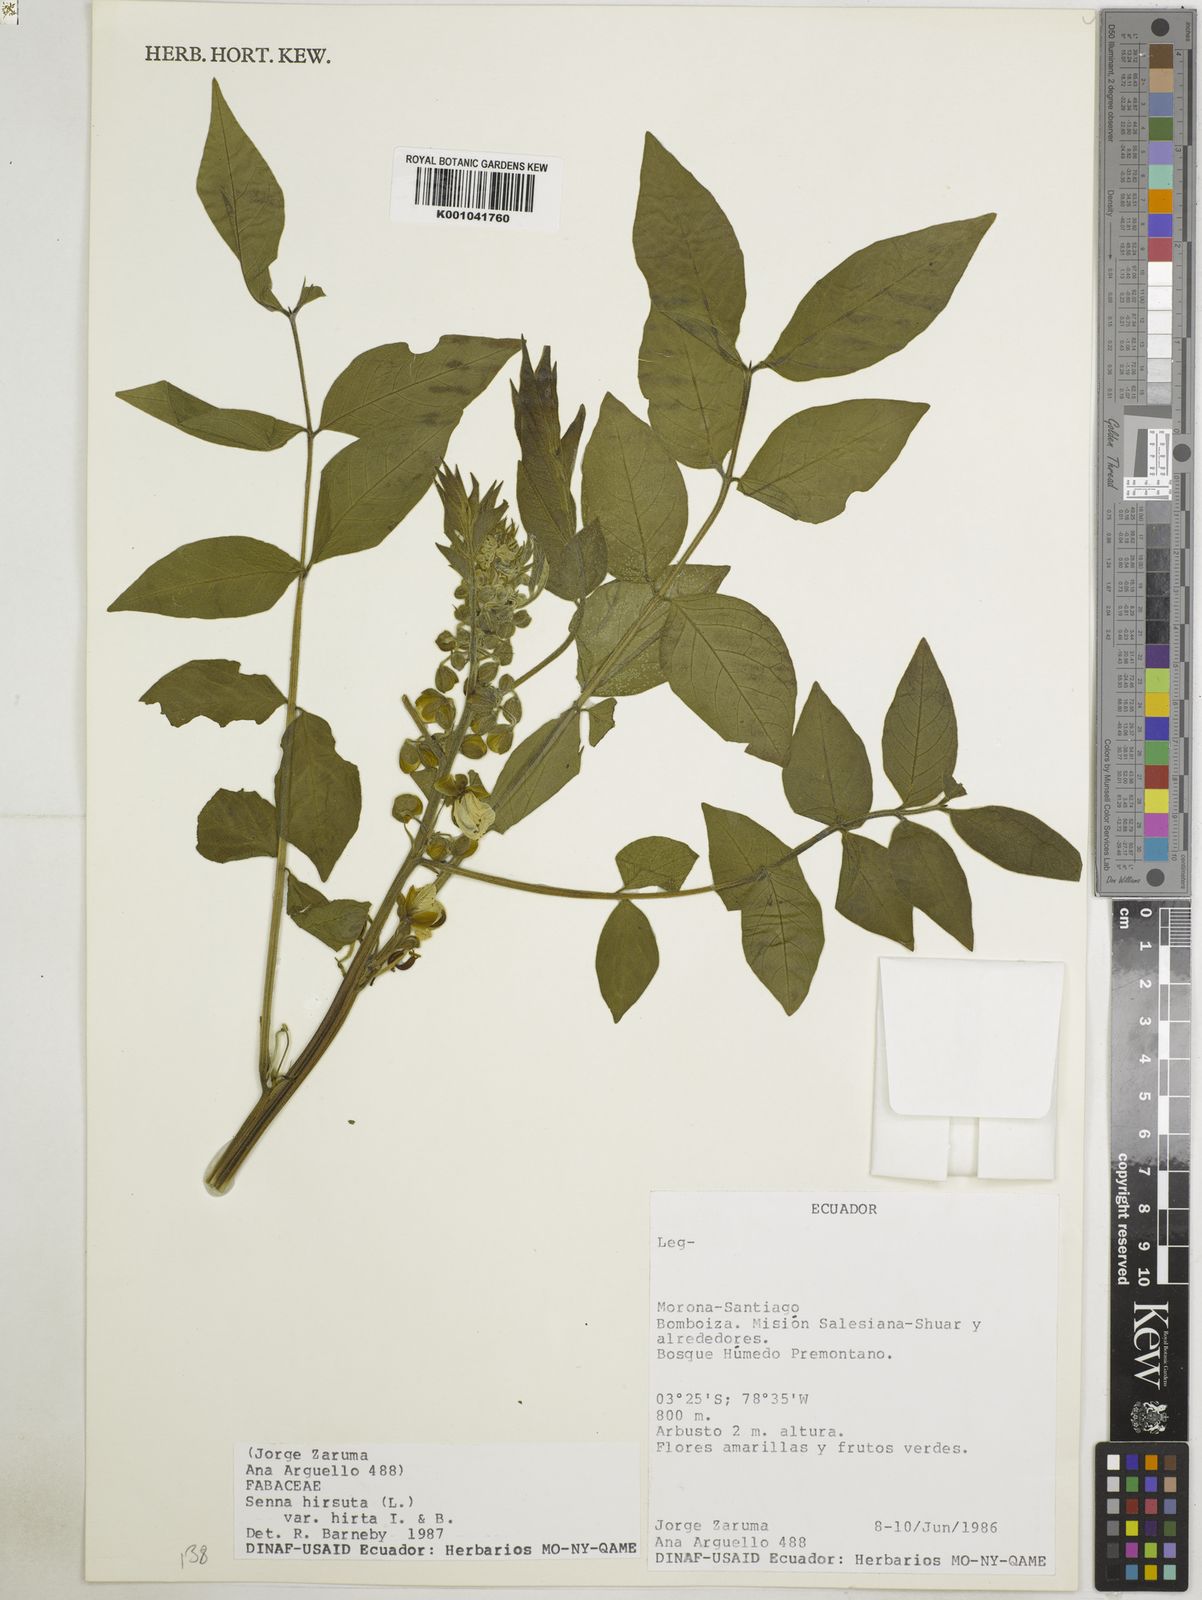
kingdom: Plantae
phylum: Tracheophyta
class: Magnoliopsida
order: Fabales
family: Fabaceae
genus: Senna
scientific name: Senna hirsuta
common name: Woolly senna
